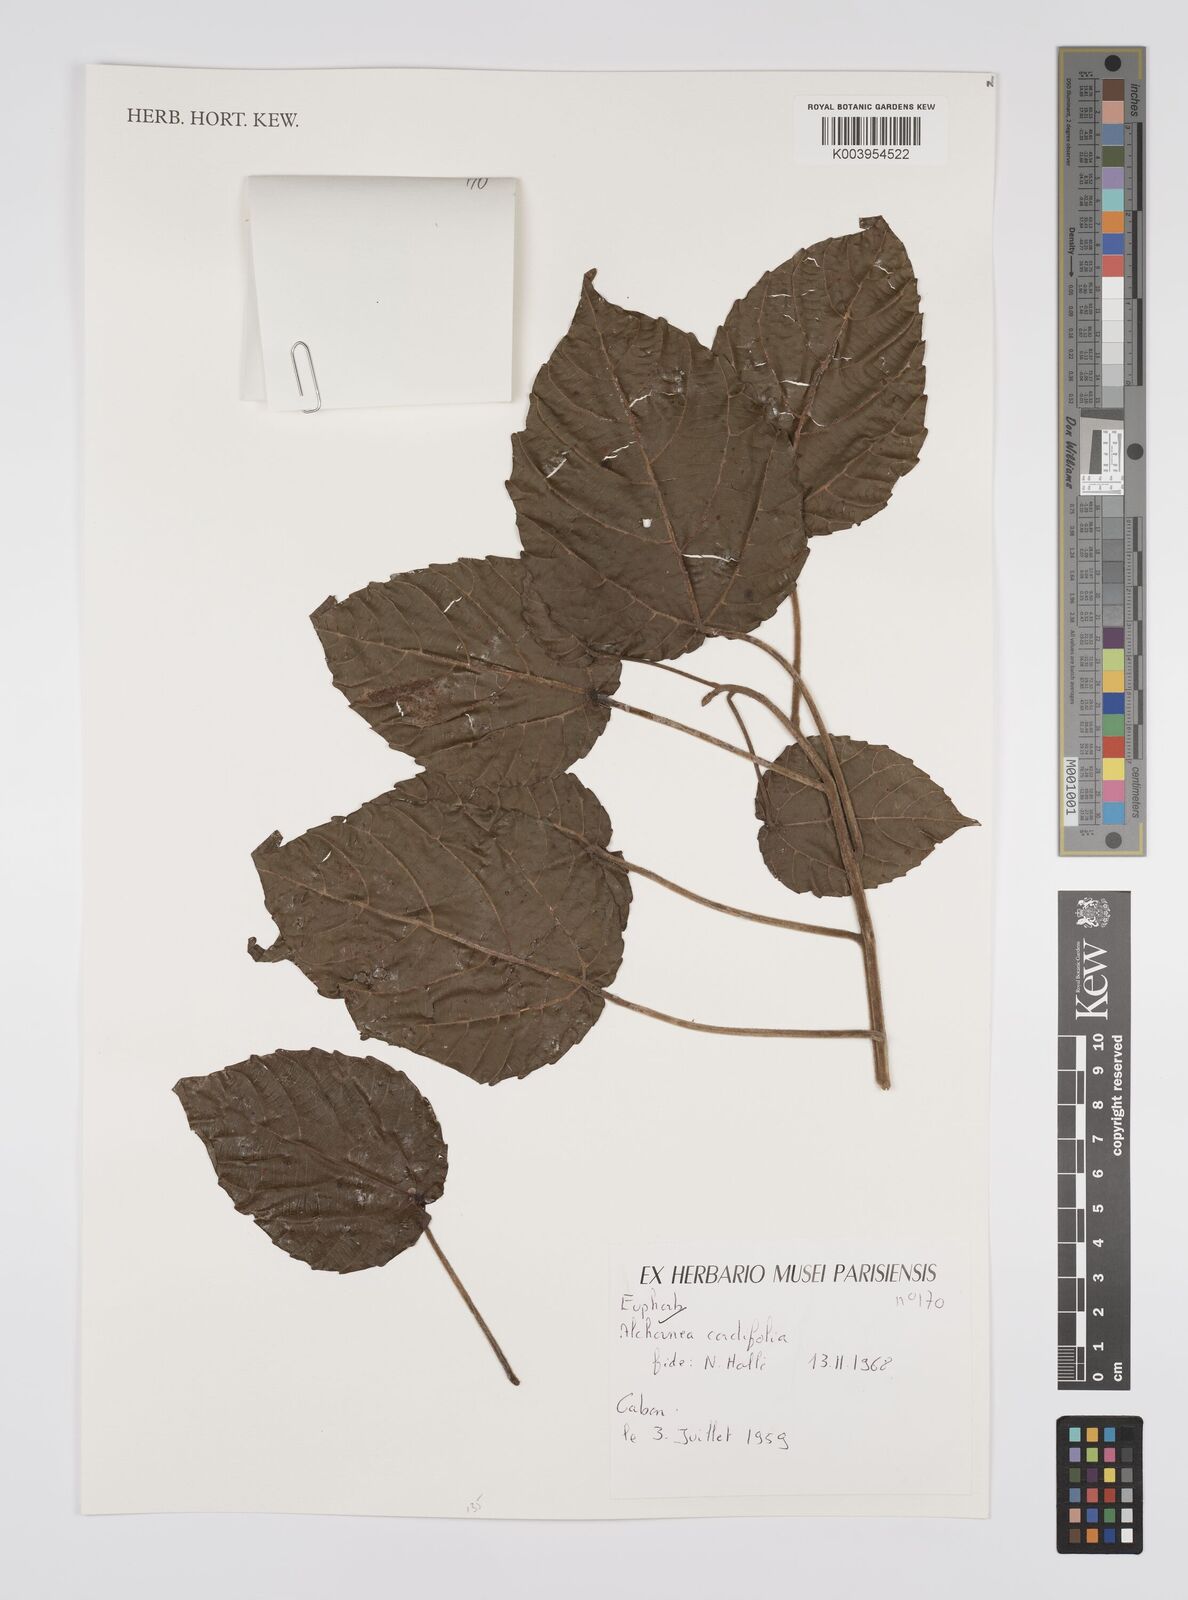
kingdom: Plantae
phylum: Tracheophyta
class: Magnoliopsida
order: Malpighiales
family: Euphorbiaceae
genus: Alchornea
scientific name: Alchornea cordifolia
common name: Christmasbush
